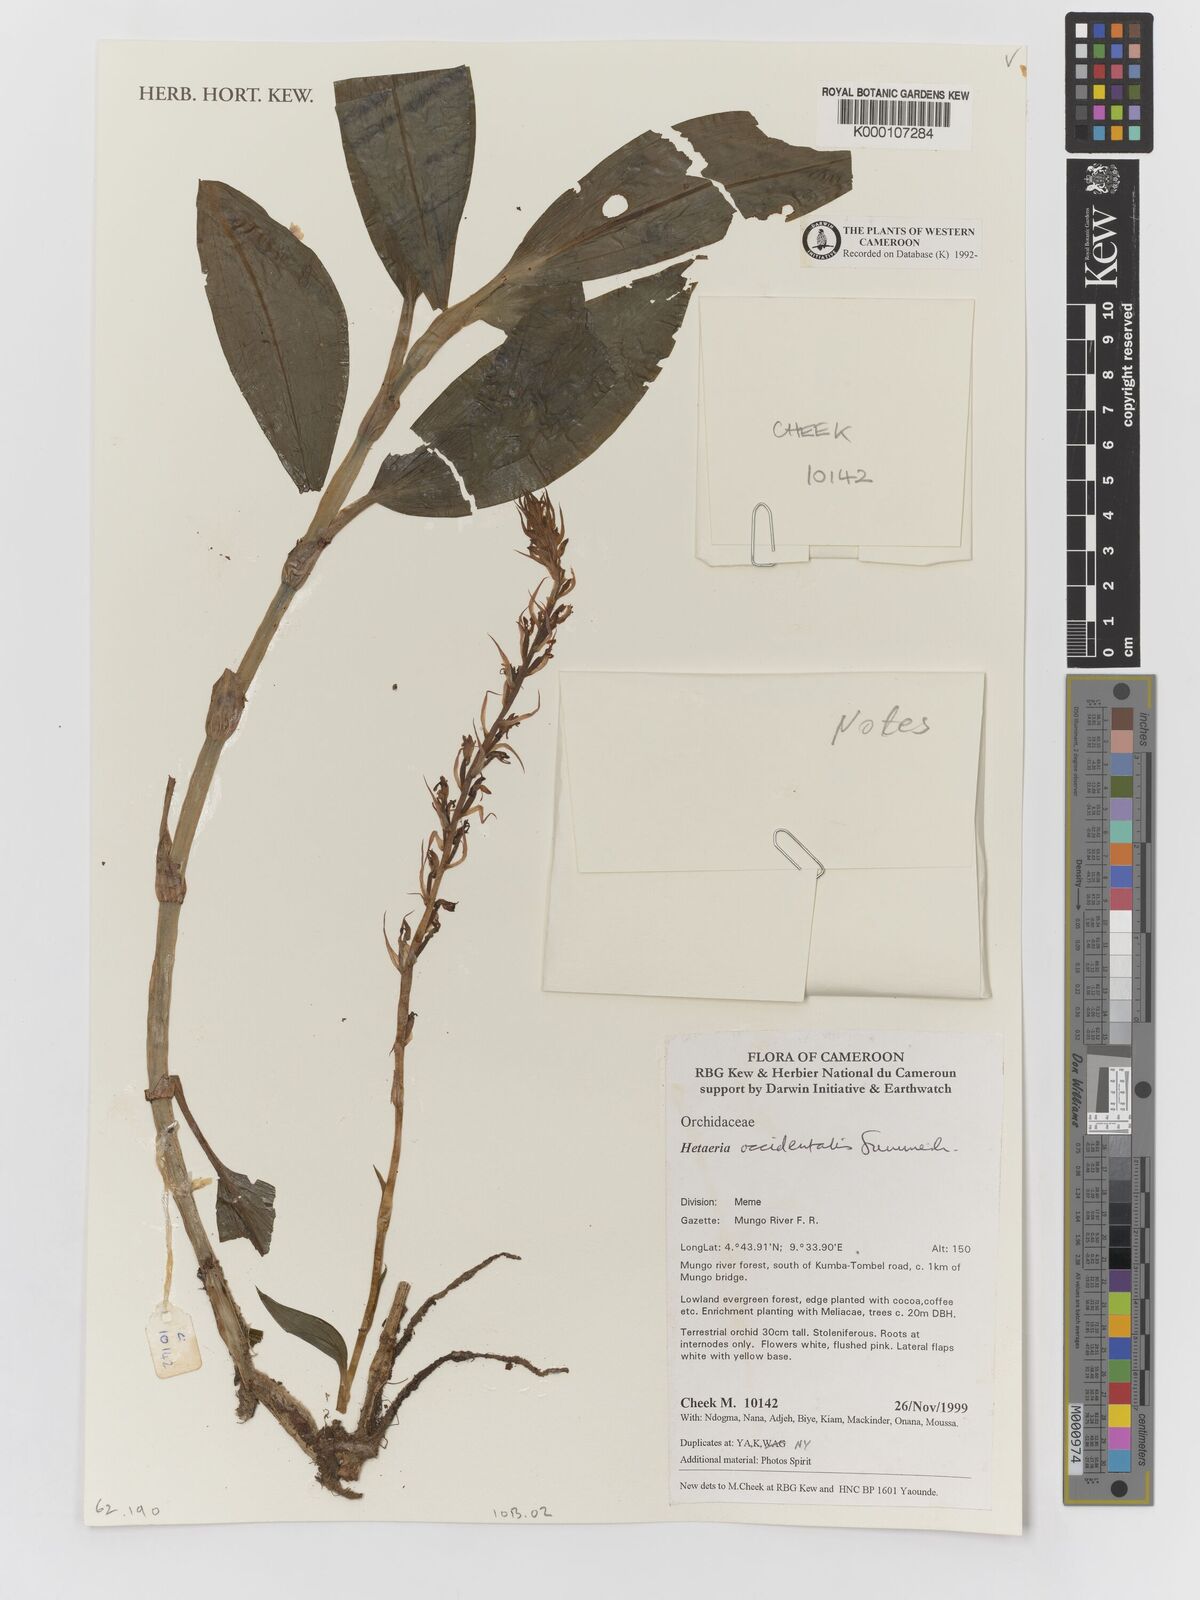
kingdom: Plantae
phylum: Tracheophyta
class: Liliopsida
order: Asparagales
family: Orchidaceae
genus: Hetaeria
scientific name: Hetaeria occidentalis
